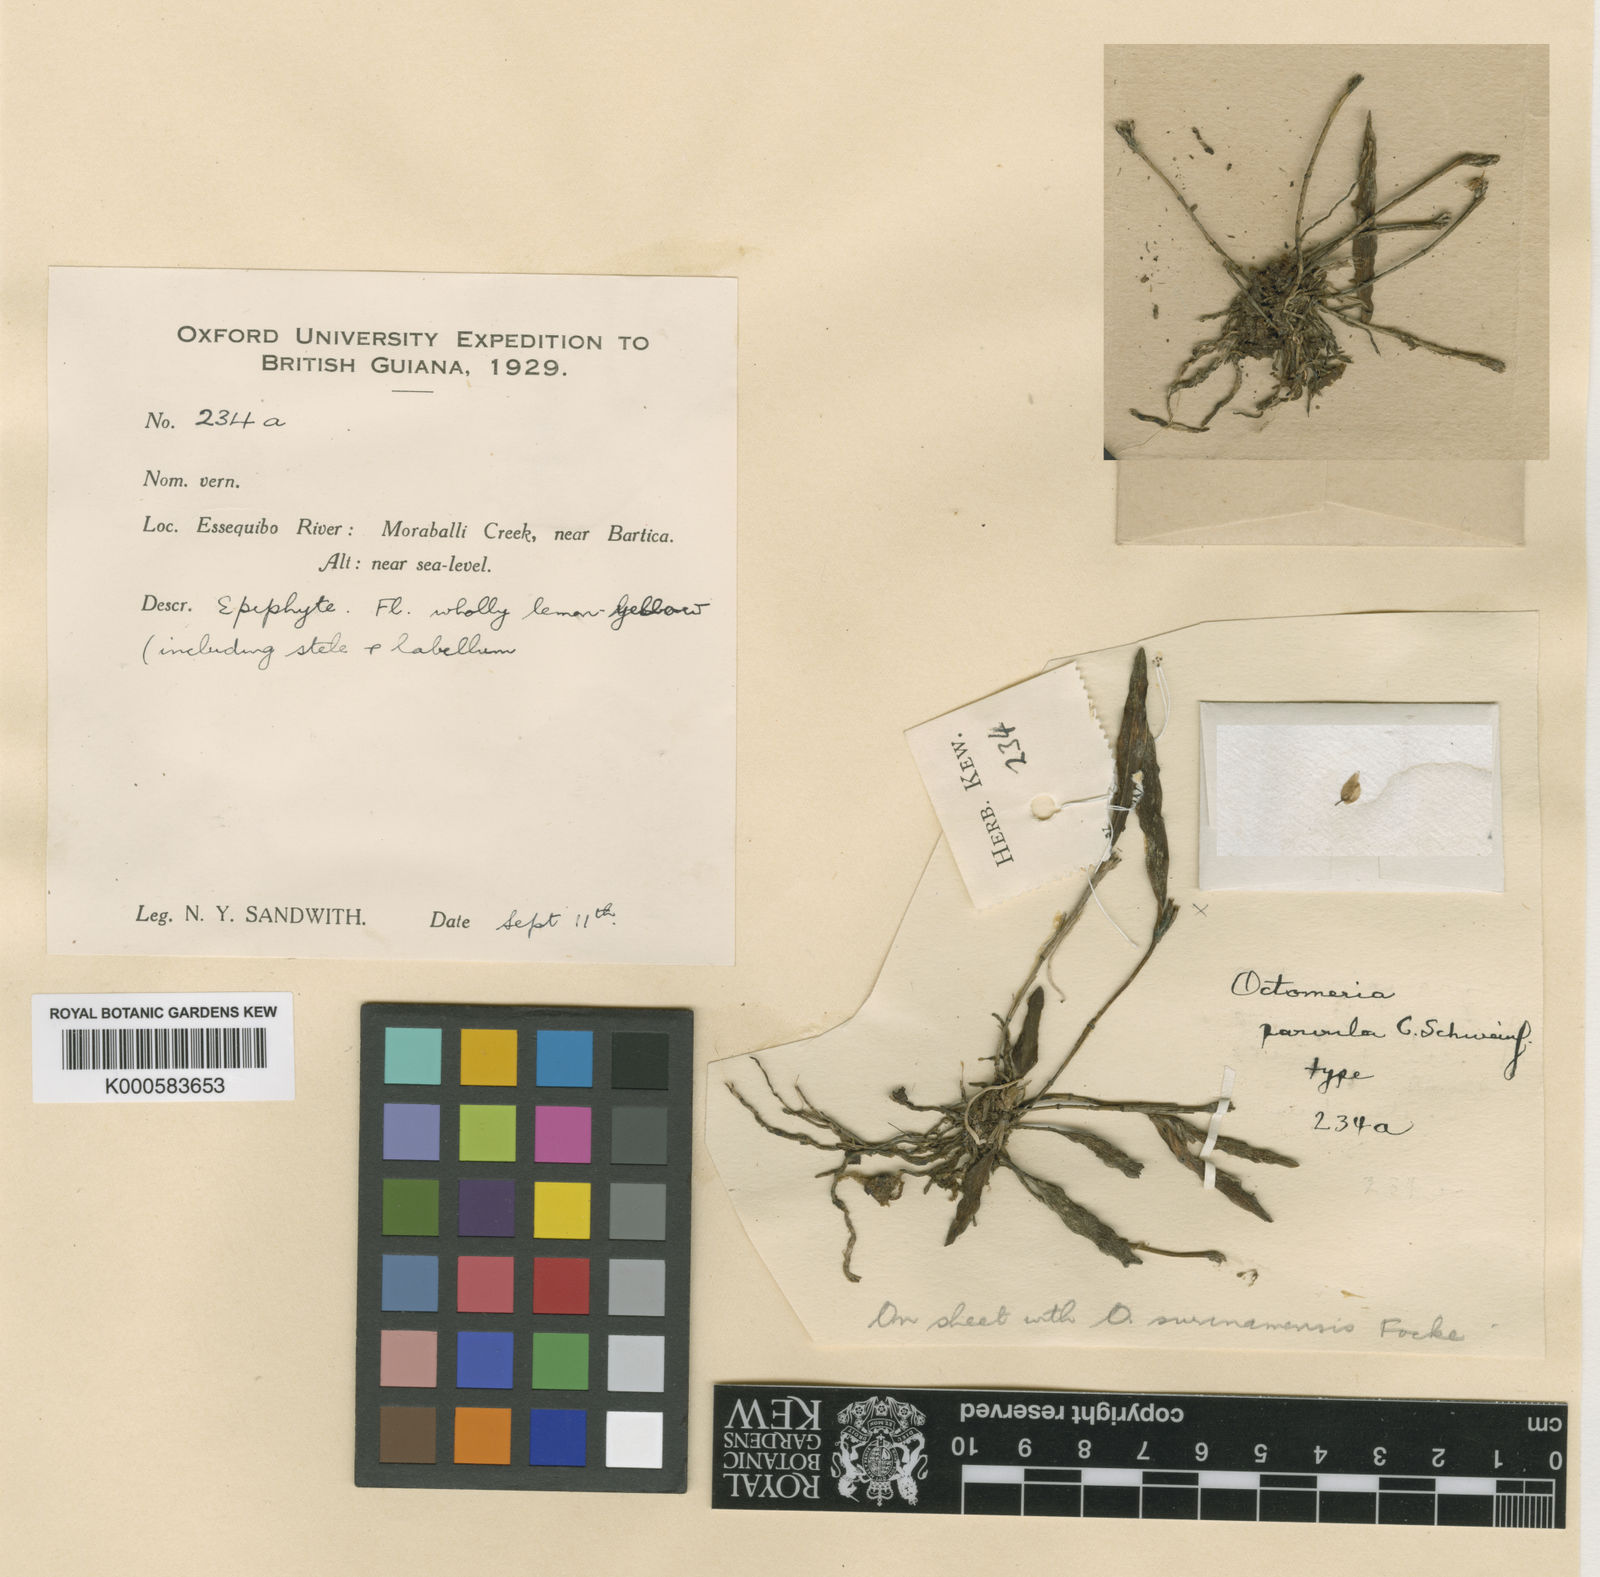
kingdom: Plantae
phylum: Tracheophyta
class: Liliopsida
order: Asparagales
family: Orchidaceae
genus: Octomeria
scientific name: Octomeria parvula
